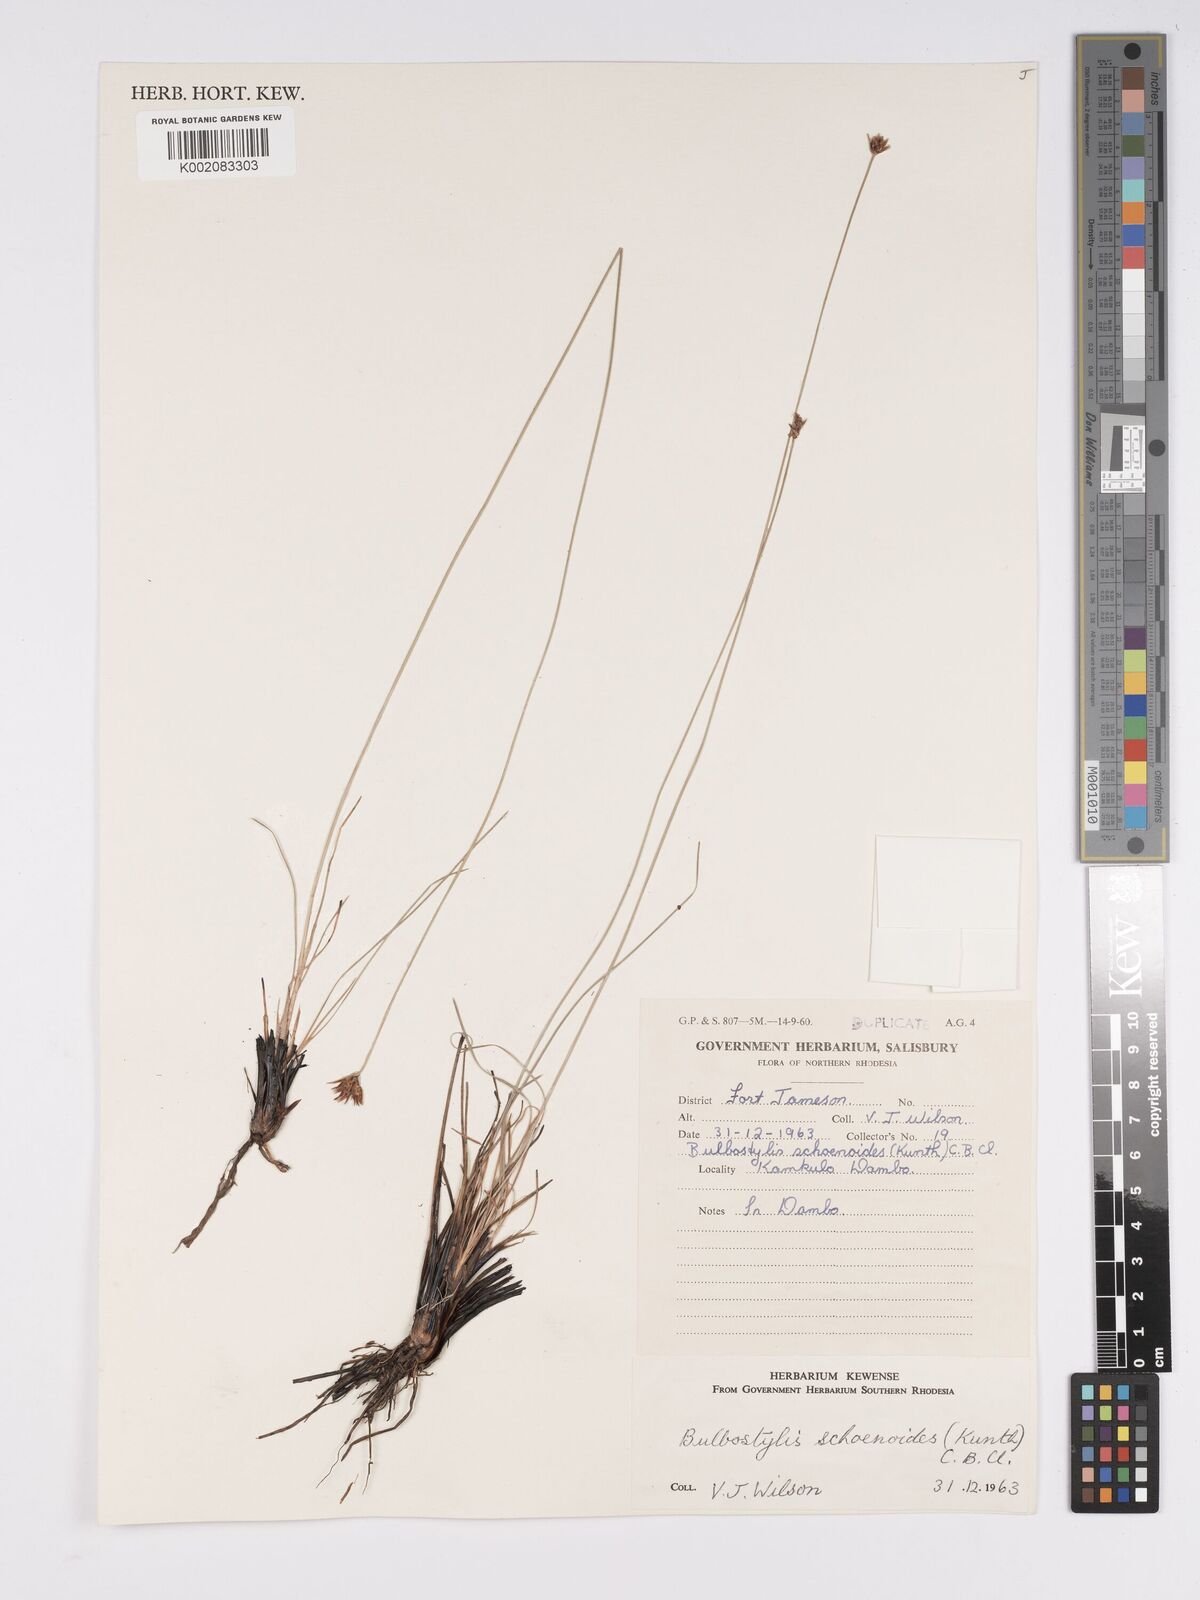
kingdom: Plantae
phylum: Tracheophyta
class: Liliopsida
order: Poales
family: Cyperaceae
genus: Bulbostylis
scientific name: Bulbostylis schoenoides
